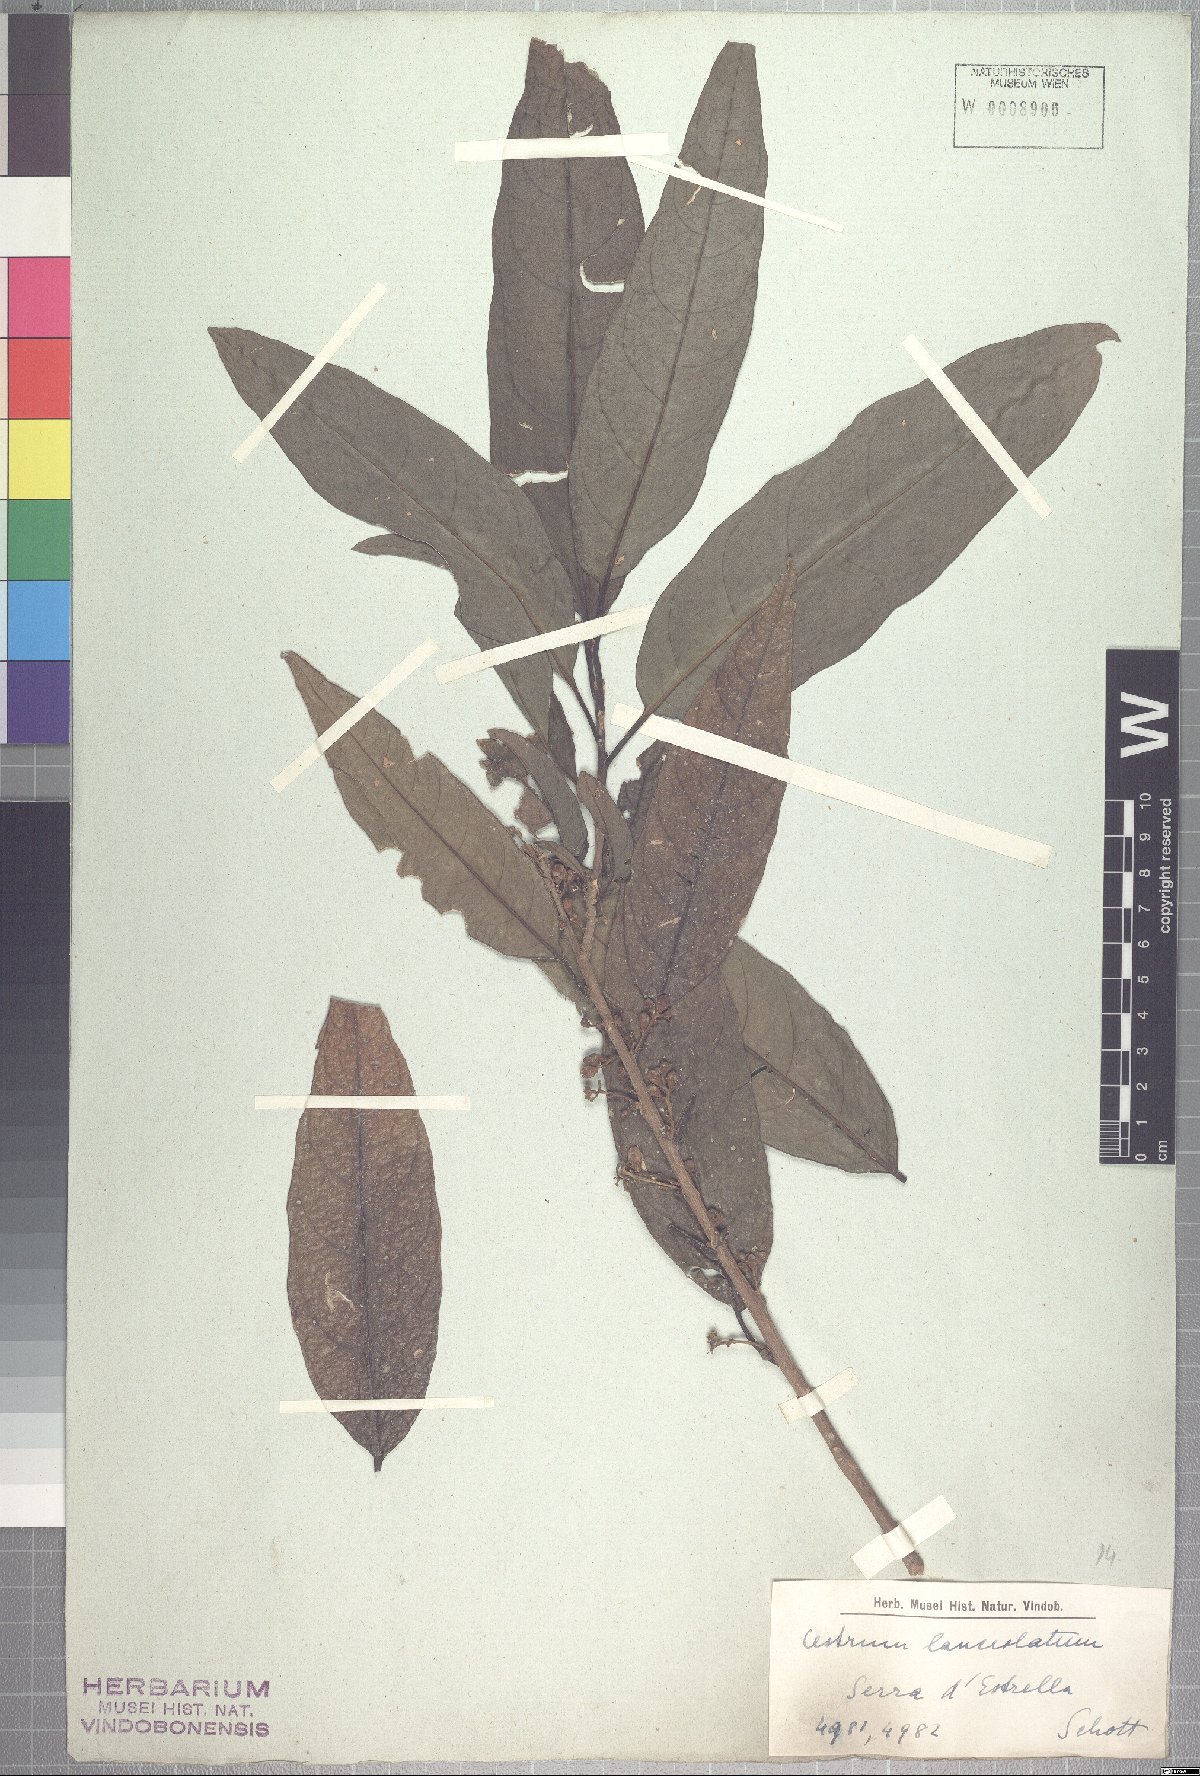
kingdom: Plantae
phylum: Tracheophyta
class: Magnoliopsida
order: Solanales
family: Solanaceae
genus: Cestrum
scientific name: Cestrum bracteatum
